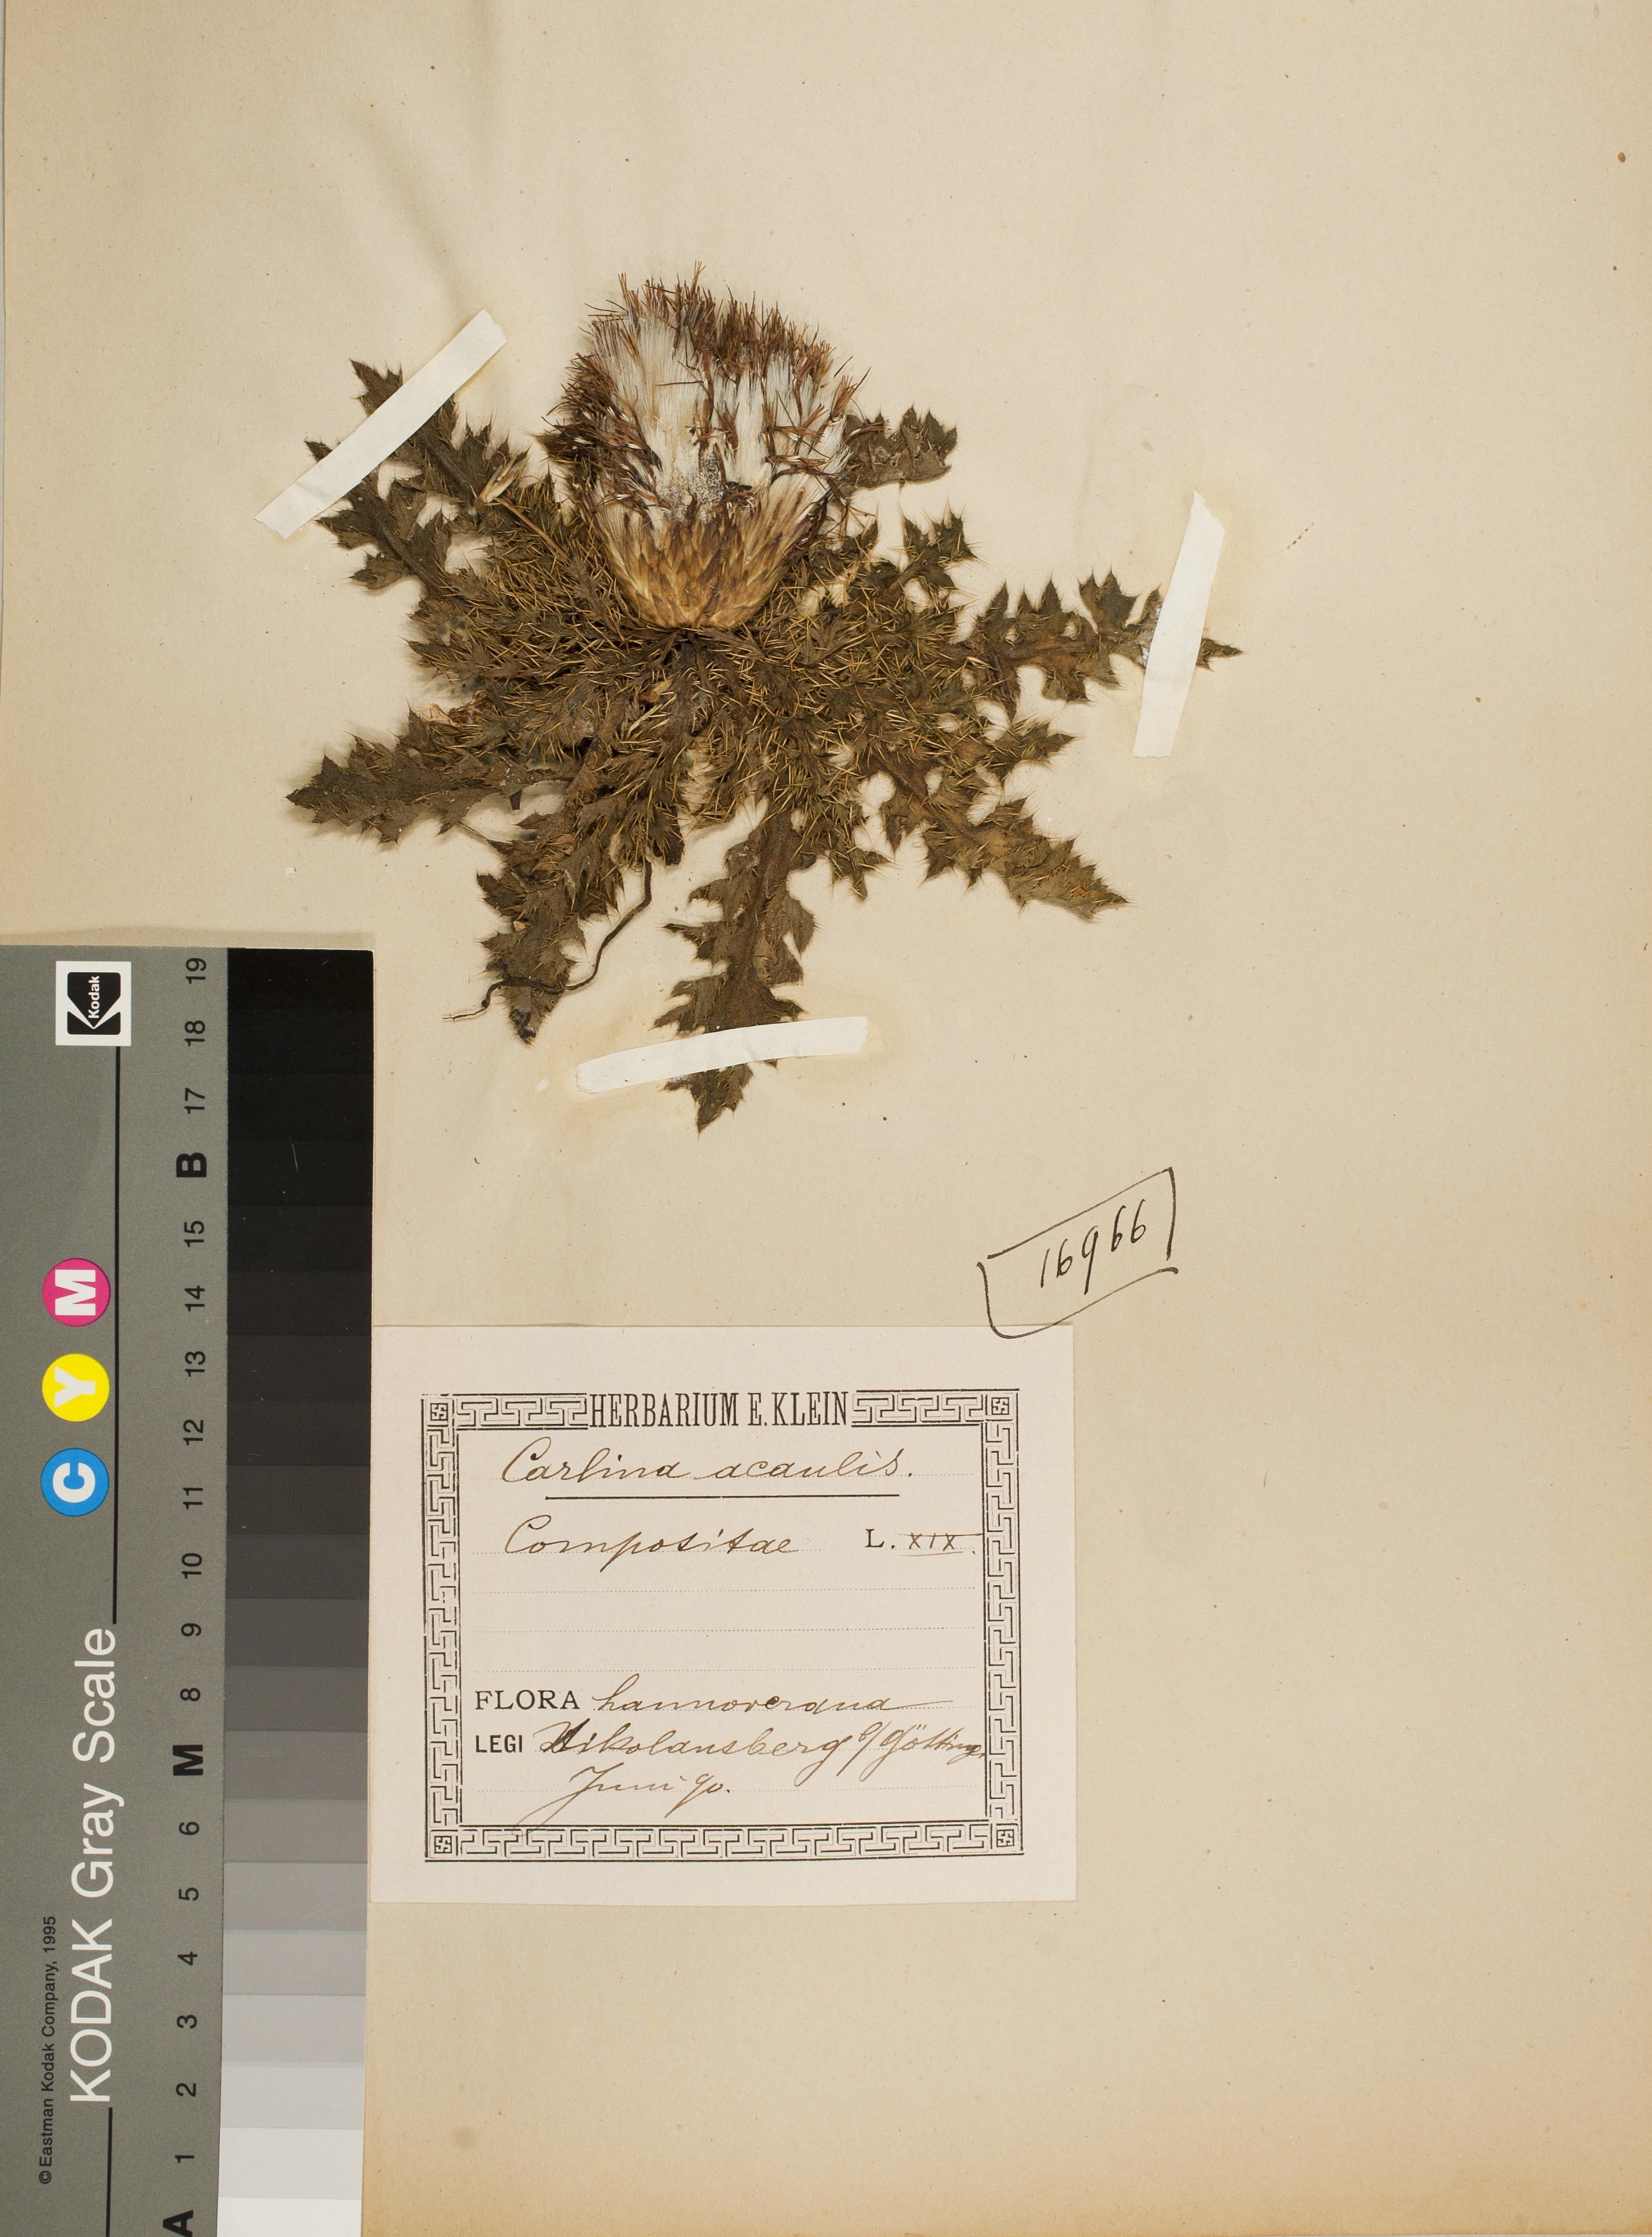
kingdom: Plantae
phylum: Tracheophyta
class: Magnoliopsida
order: Asterales
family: Asteraceae
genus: Carlina
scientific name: Carlina acaulis
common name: Stemless carline thistle
